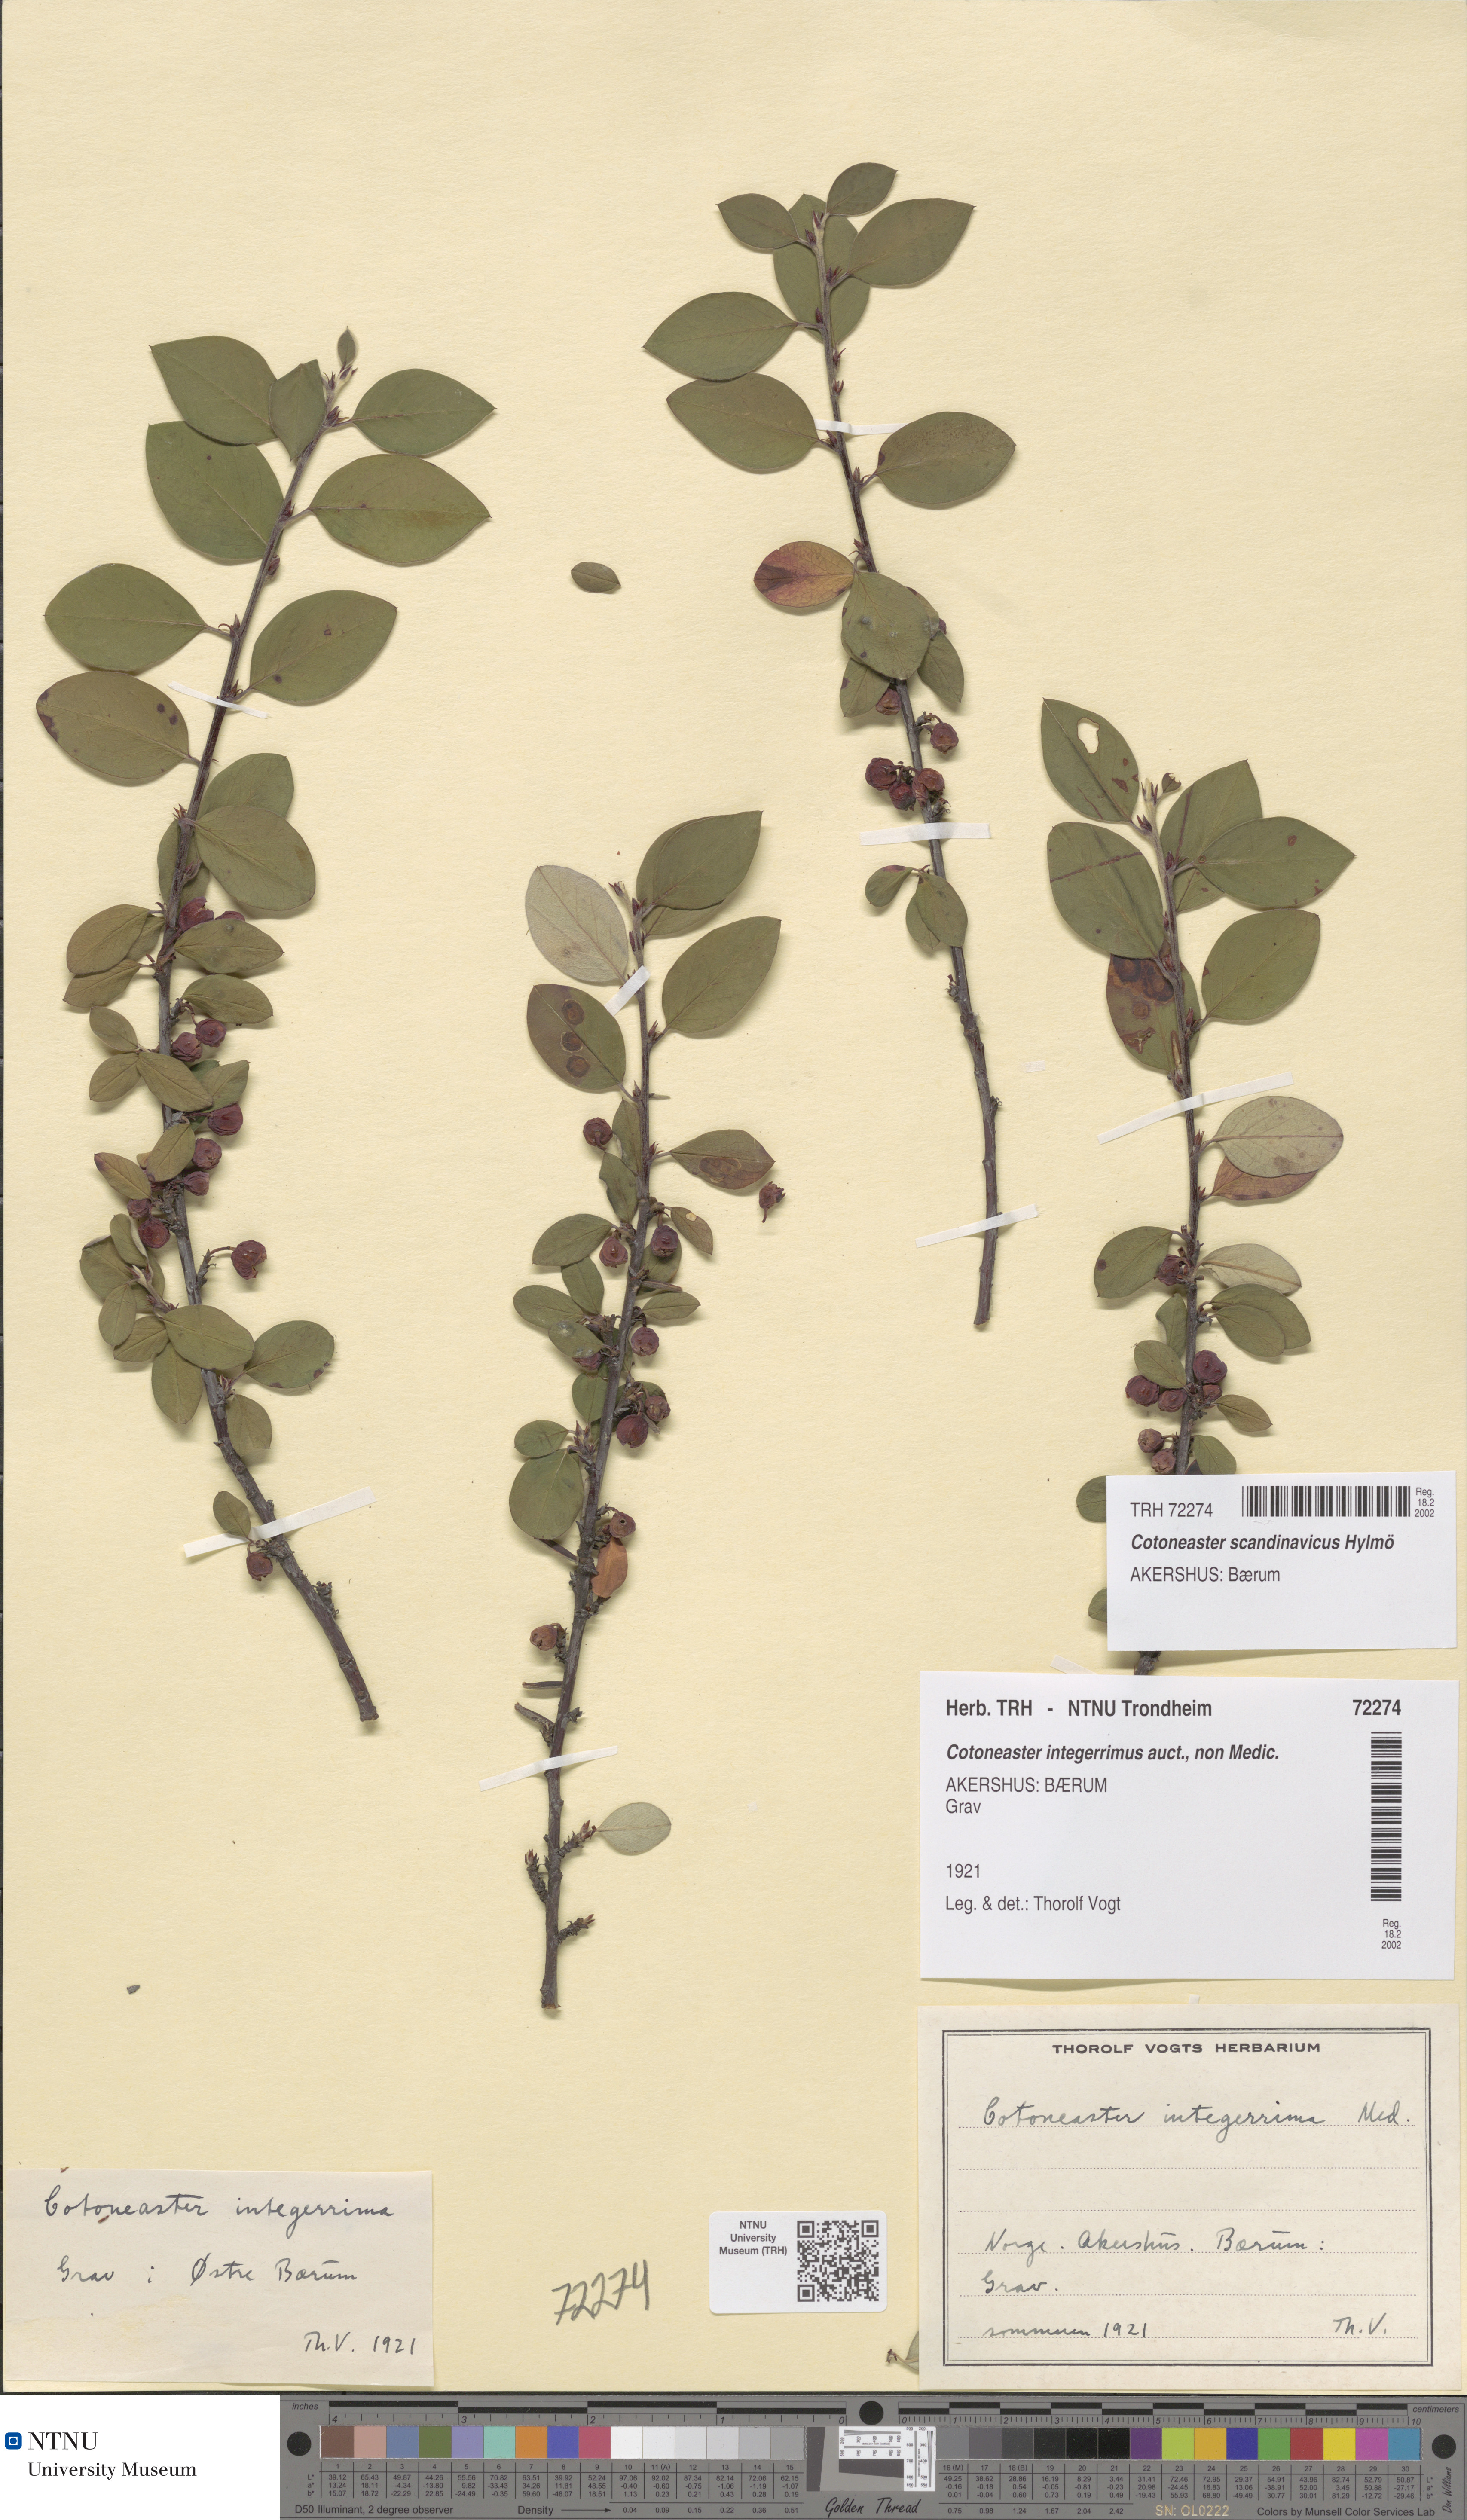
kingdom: Plantae
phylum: Tracheophyta
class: Magnoliopsida
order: Rosales
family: Rosaceae
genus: Cotoneaster
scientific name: Cotoneaster integerrimus
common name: Wild cotoneaster
